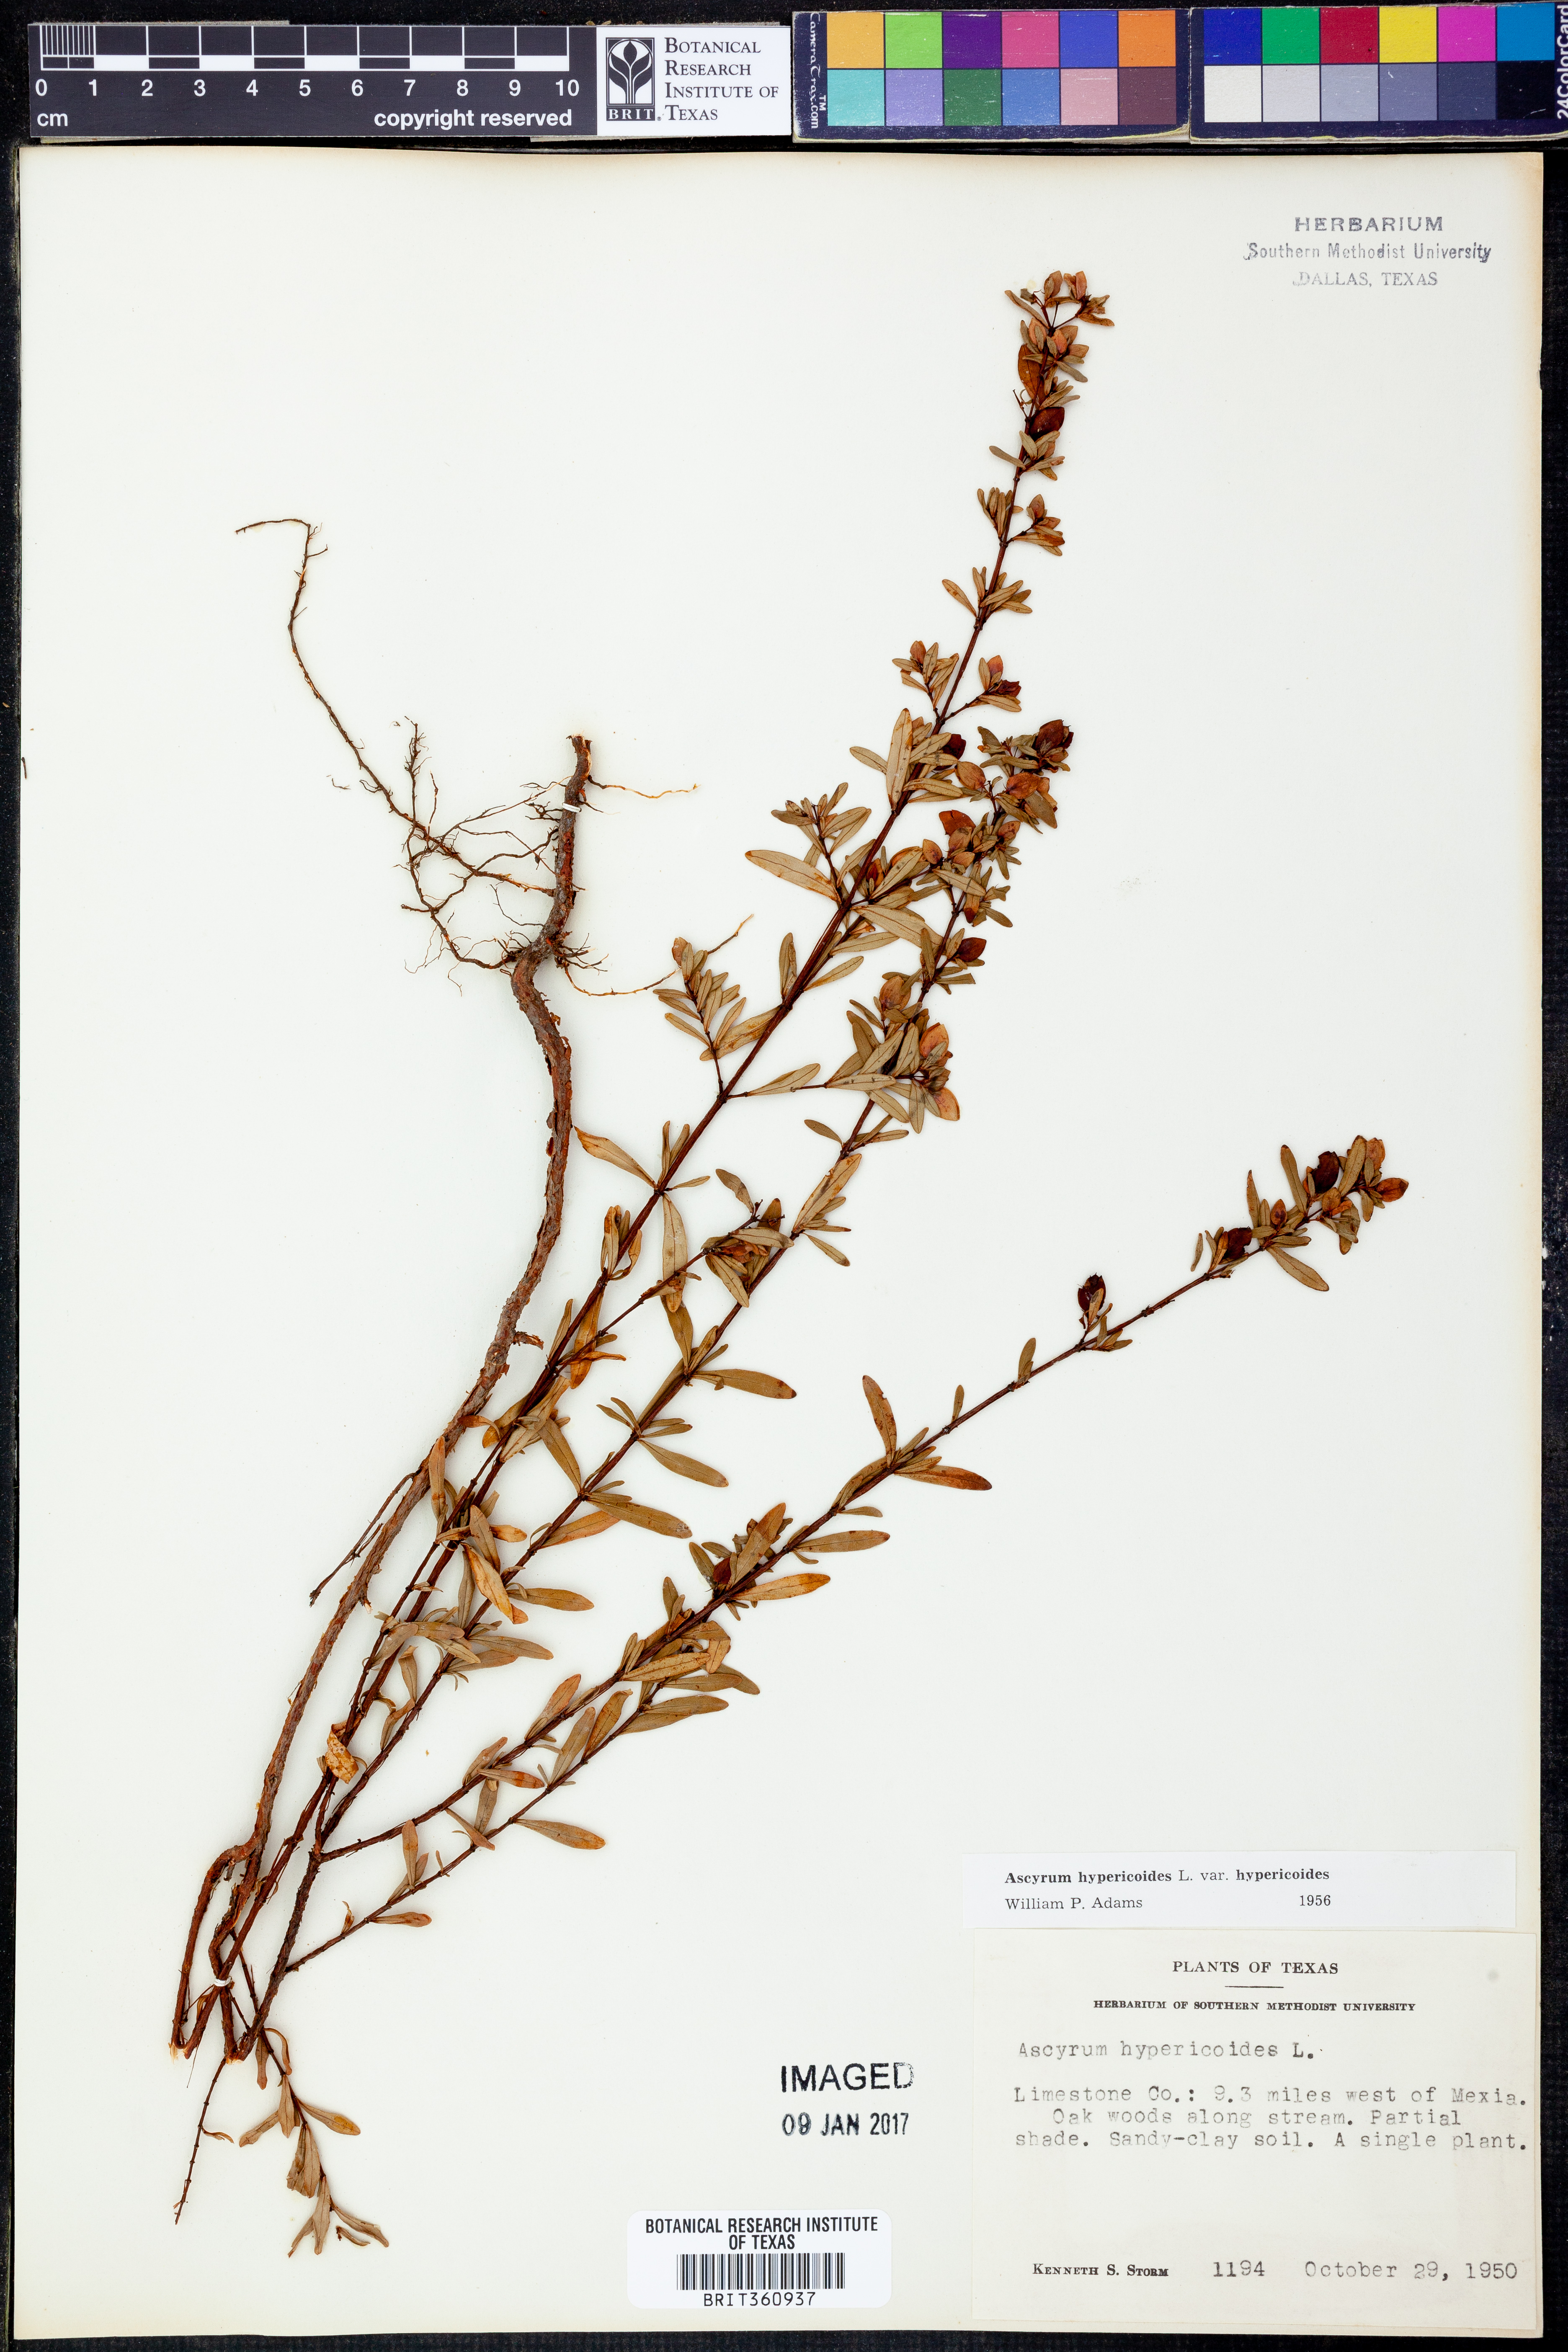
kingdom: Plantae
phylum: Tracheophyta
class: Magnoliopsida
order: Malpighiales
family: Hypericaceae
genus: Hypericum
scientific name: Hypericum hypericoides
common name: St. andrew's cross
